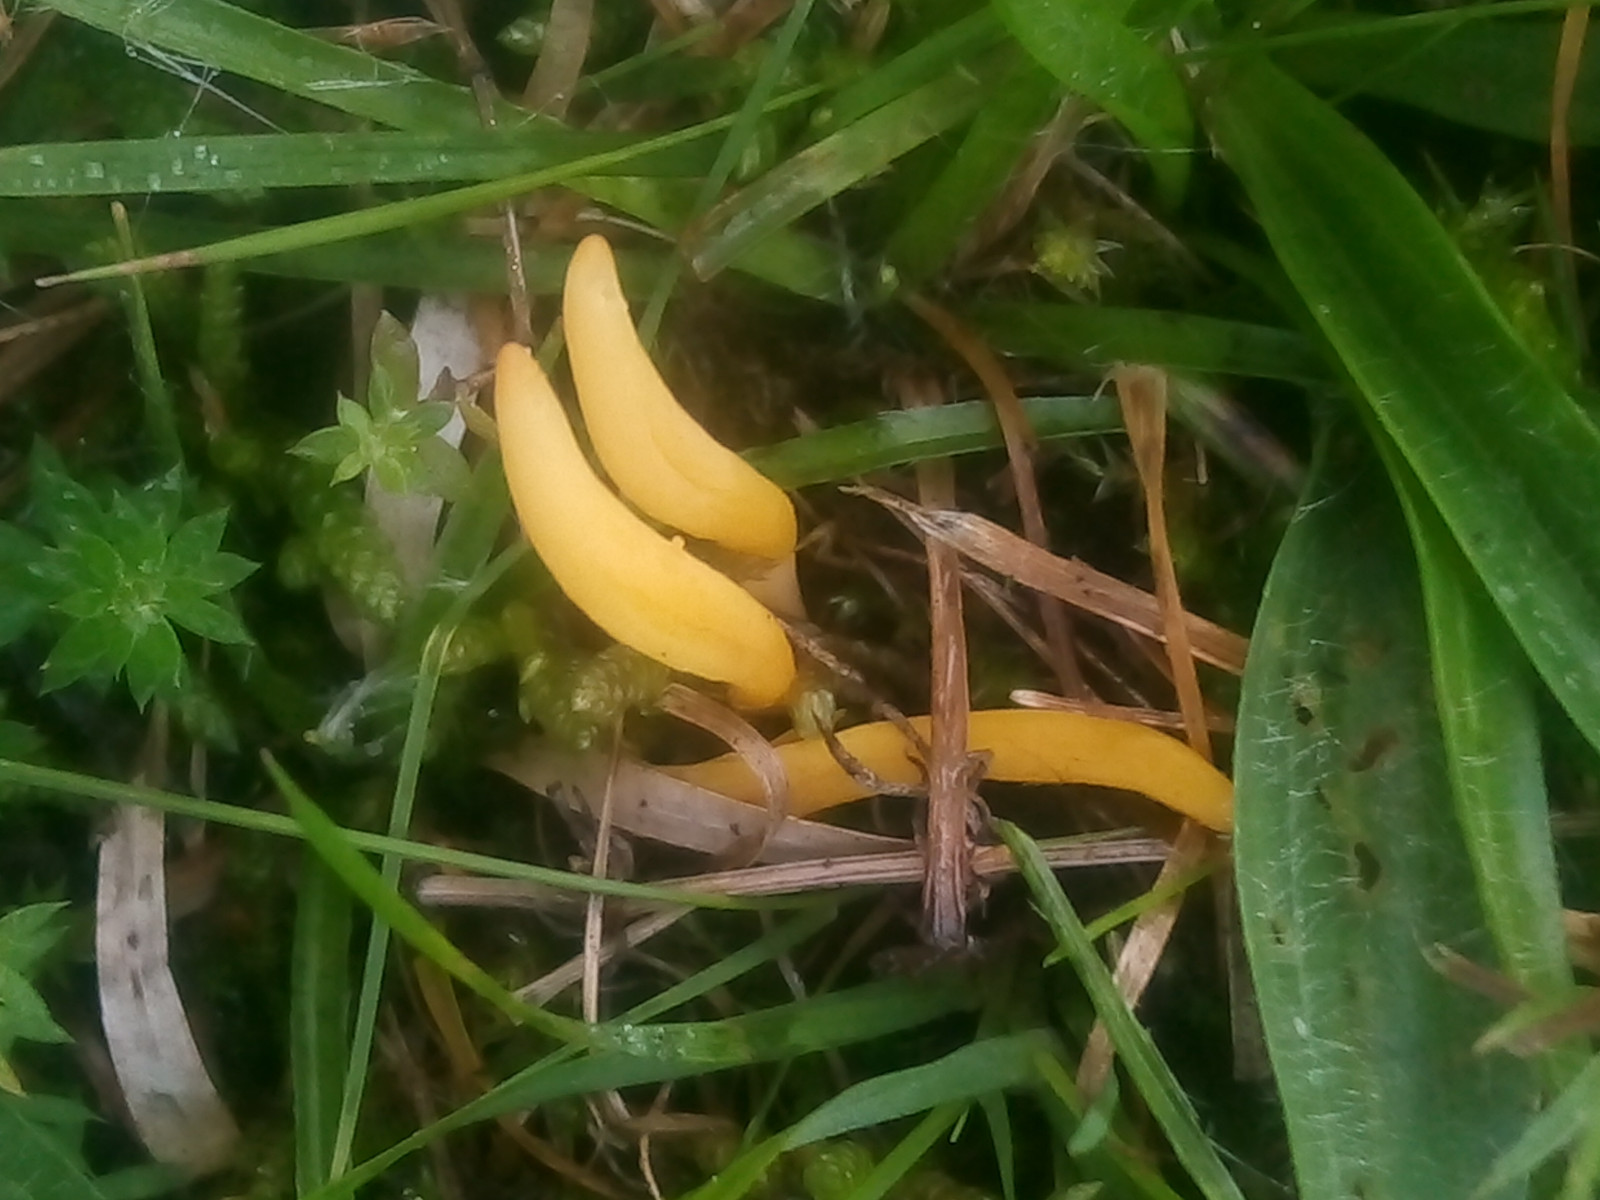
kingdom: Fungi
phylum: Basidiomycota
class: Agaricomycetes
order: Agaricales
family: Clavariaceae
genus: Clavulinopsis
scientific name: Clavulinopsis helvola
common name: orangegul køllesvamp
